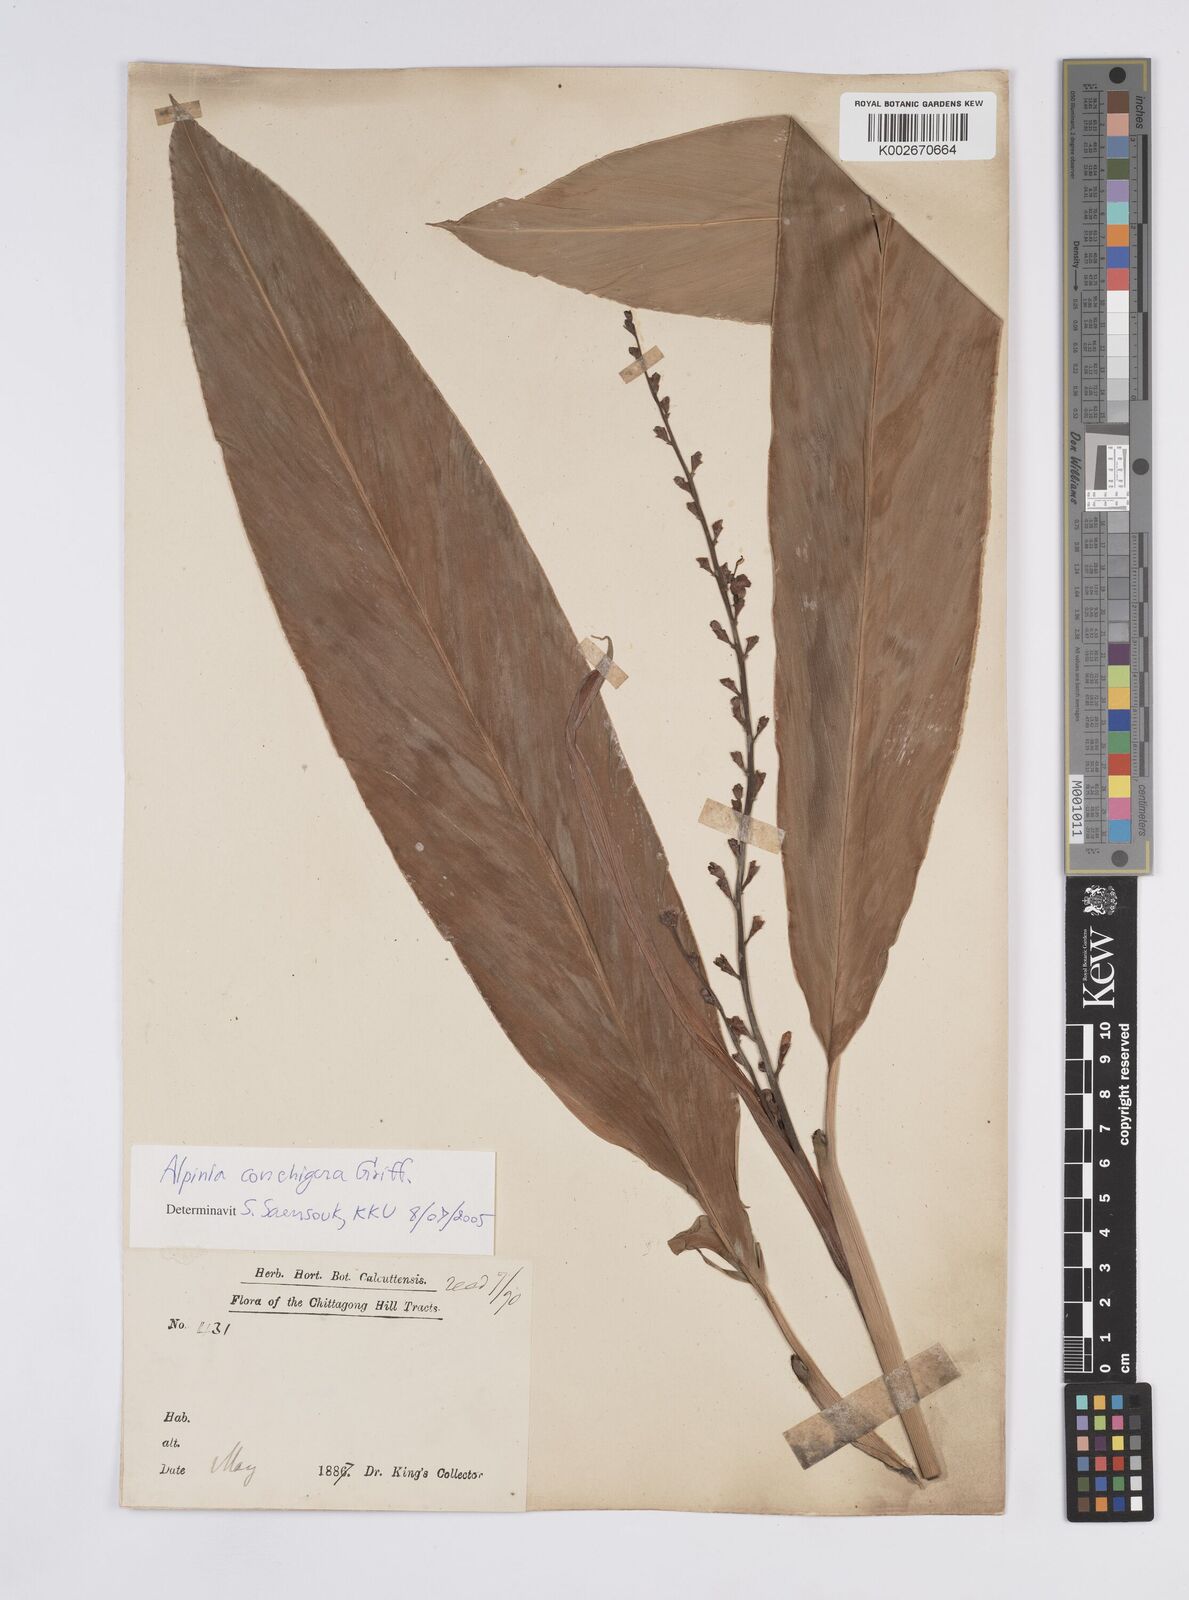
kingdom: Plantae
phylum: Tracheophyta
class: Liliopsida
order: Zingiberales
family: Zingiberaceae
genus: Alpinia
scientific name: Alpinia conchigera
